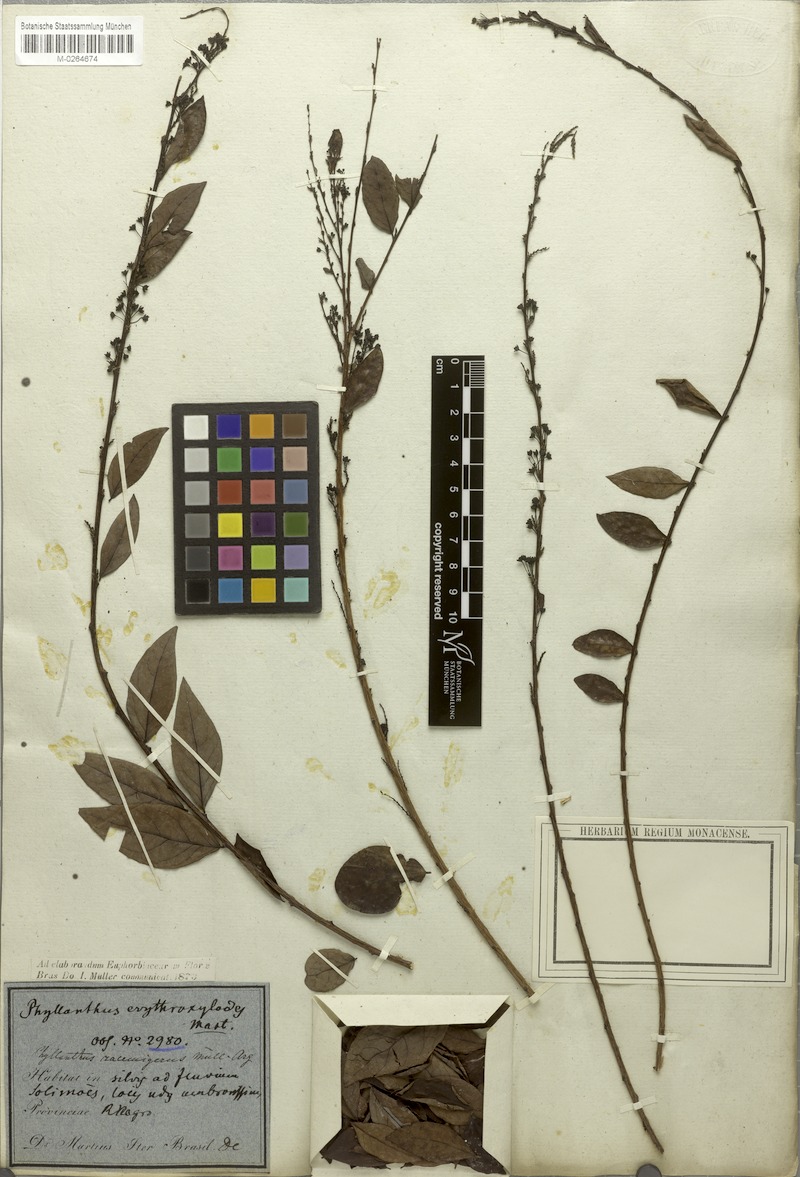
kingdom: Plantae
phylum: Tracheophyta
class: Magnoliopsida
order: Malpighiales
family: Phyllanthaceae
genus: Phyllanthus
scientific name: Phyllanthus racemiger
